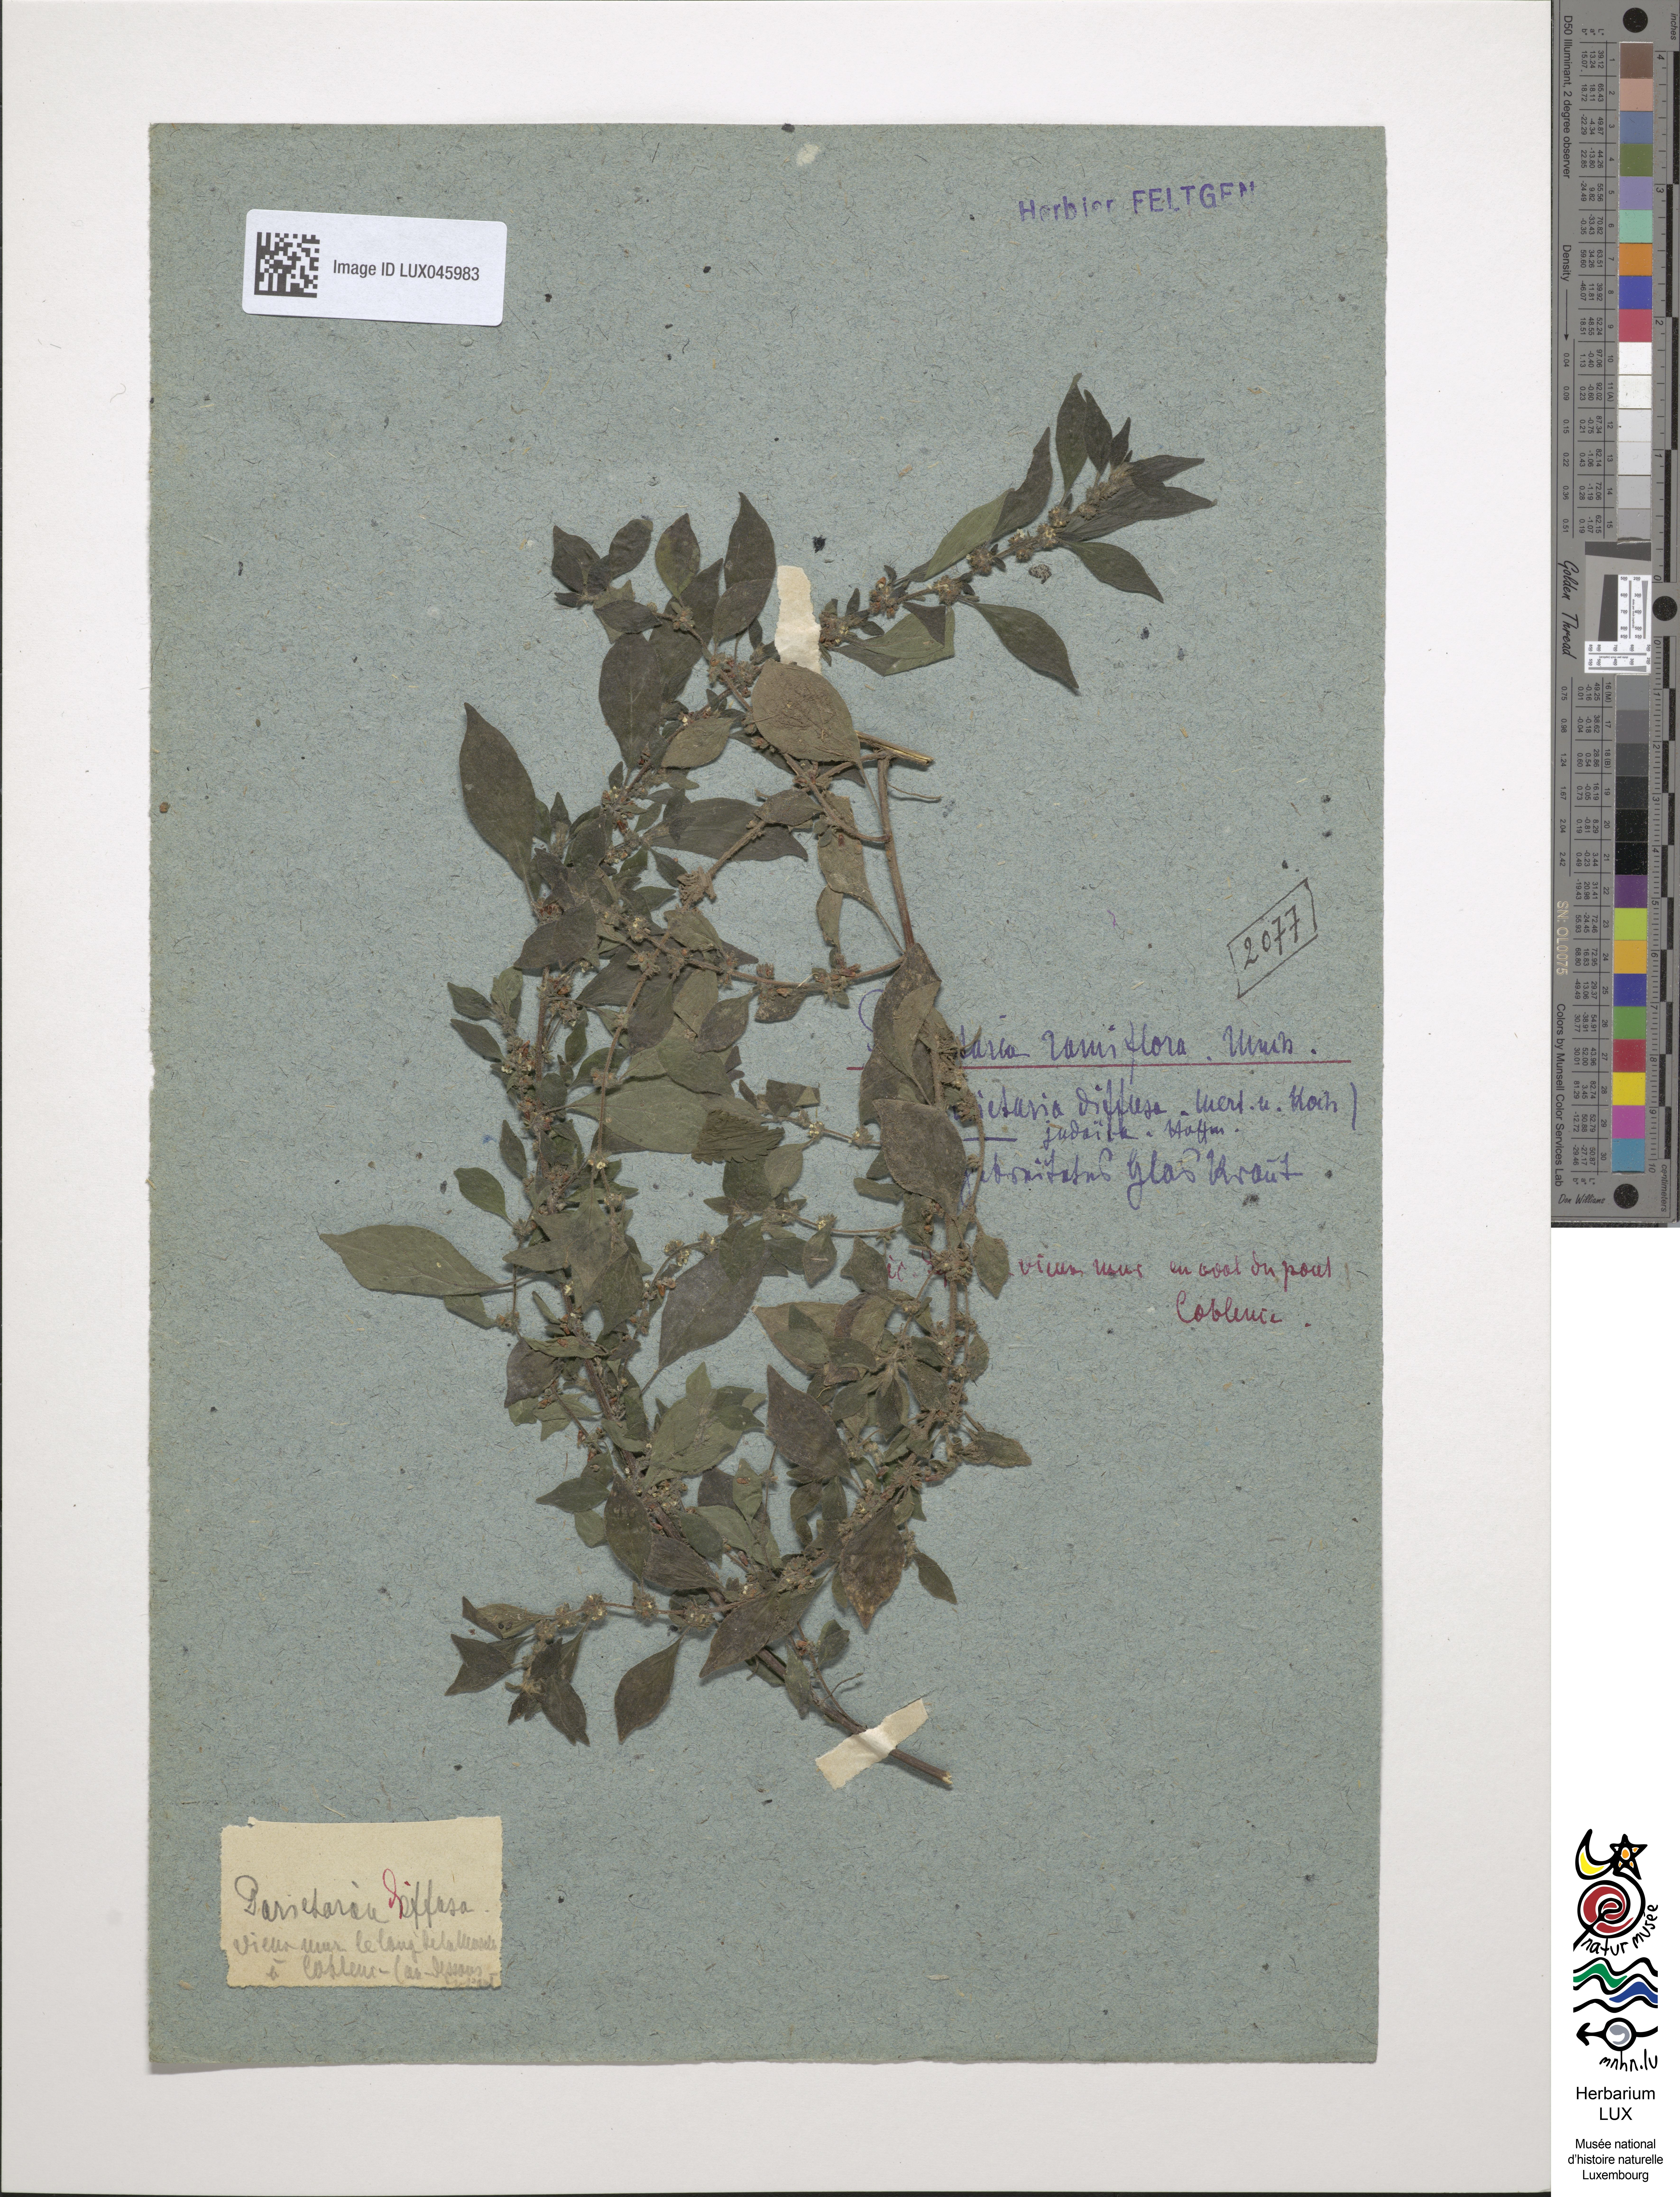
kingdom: Plantae
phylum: Tracheophyta
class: Magnoliopsida
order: Rosales
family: Urticaceae
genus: Parietaria
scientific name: Parietaria judaica
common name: Pellitory-of-the-wall
